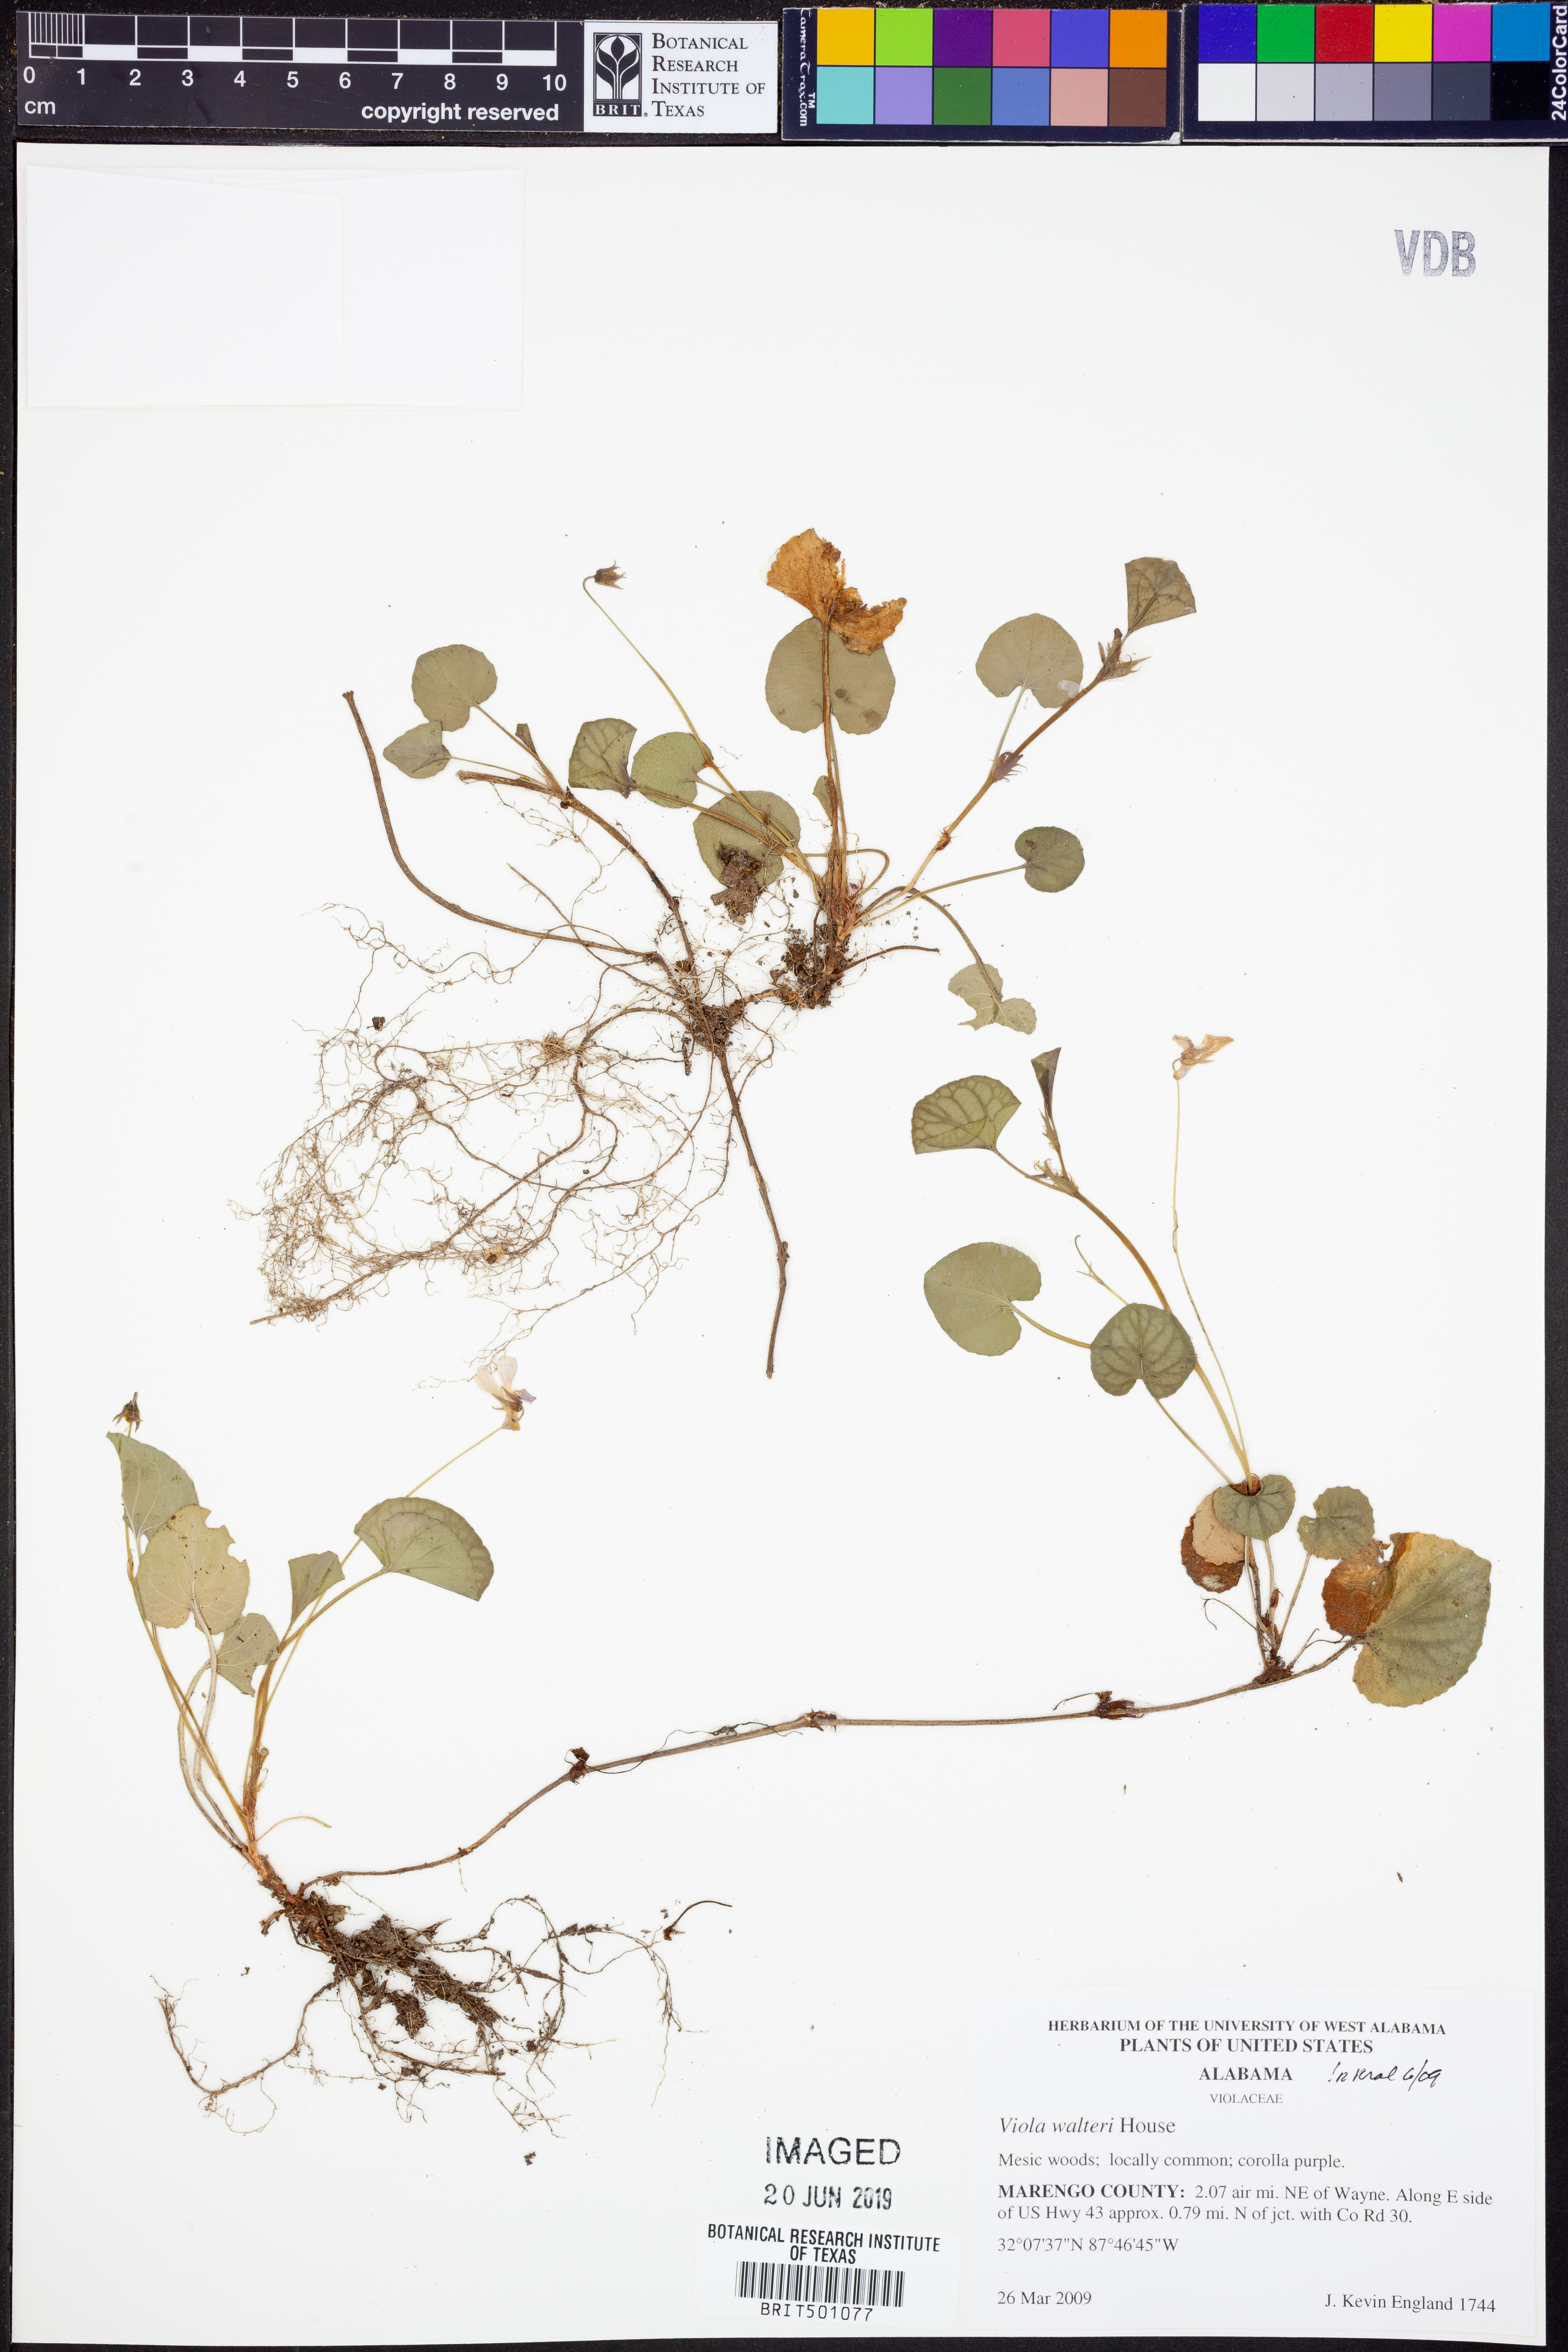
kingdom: Plantae
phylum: Tracheophyta
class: Magnoliopsida
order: Malpighiales
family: Violaceae
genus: Viola
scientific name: Viola walteri
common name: Prostrate southern violet
